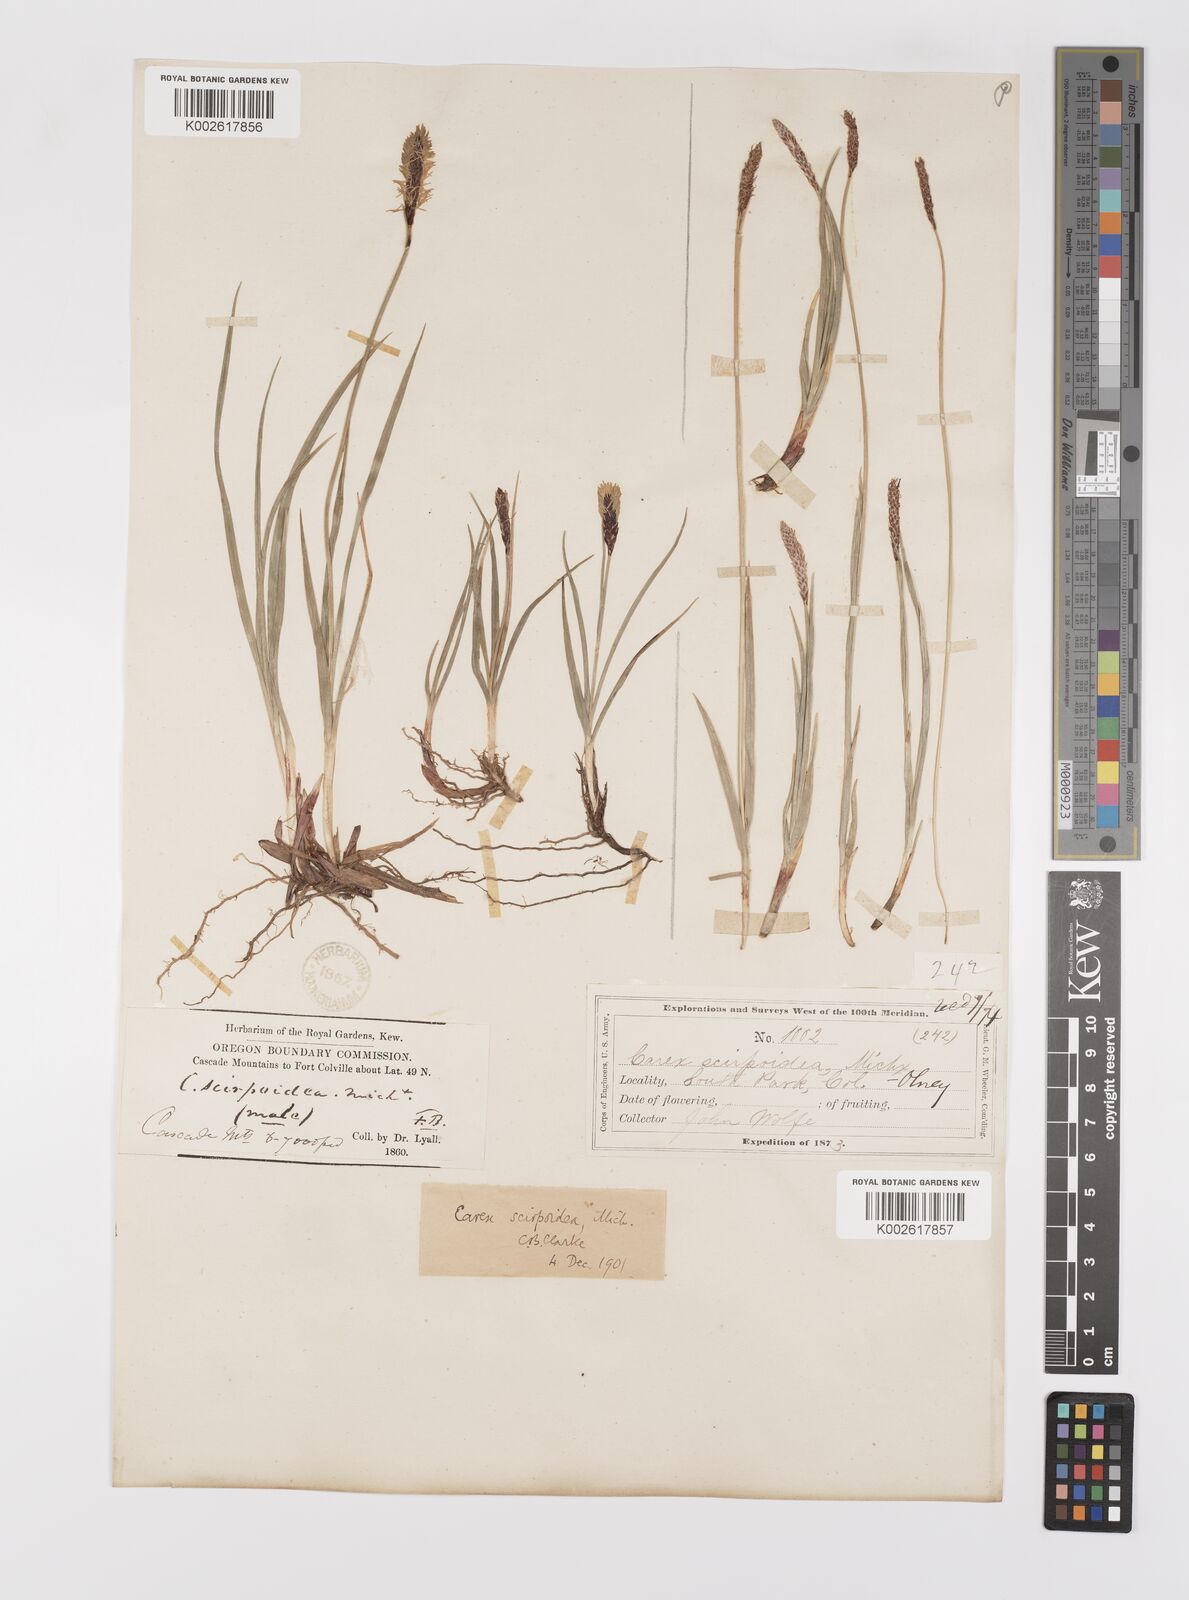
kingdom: Plantae
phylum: Tracheophyta
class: Liliopsida
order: Poales
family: Cyperaceae
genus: Carex
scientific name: Carex scirpoidea
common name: Canada single-spike sedge
